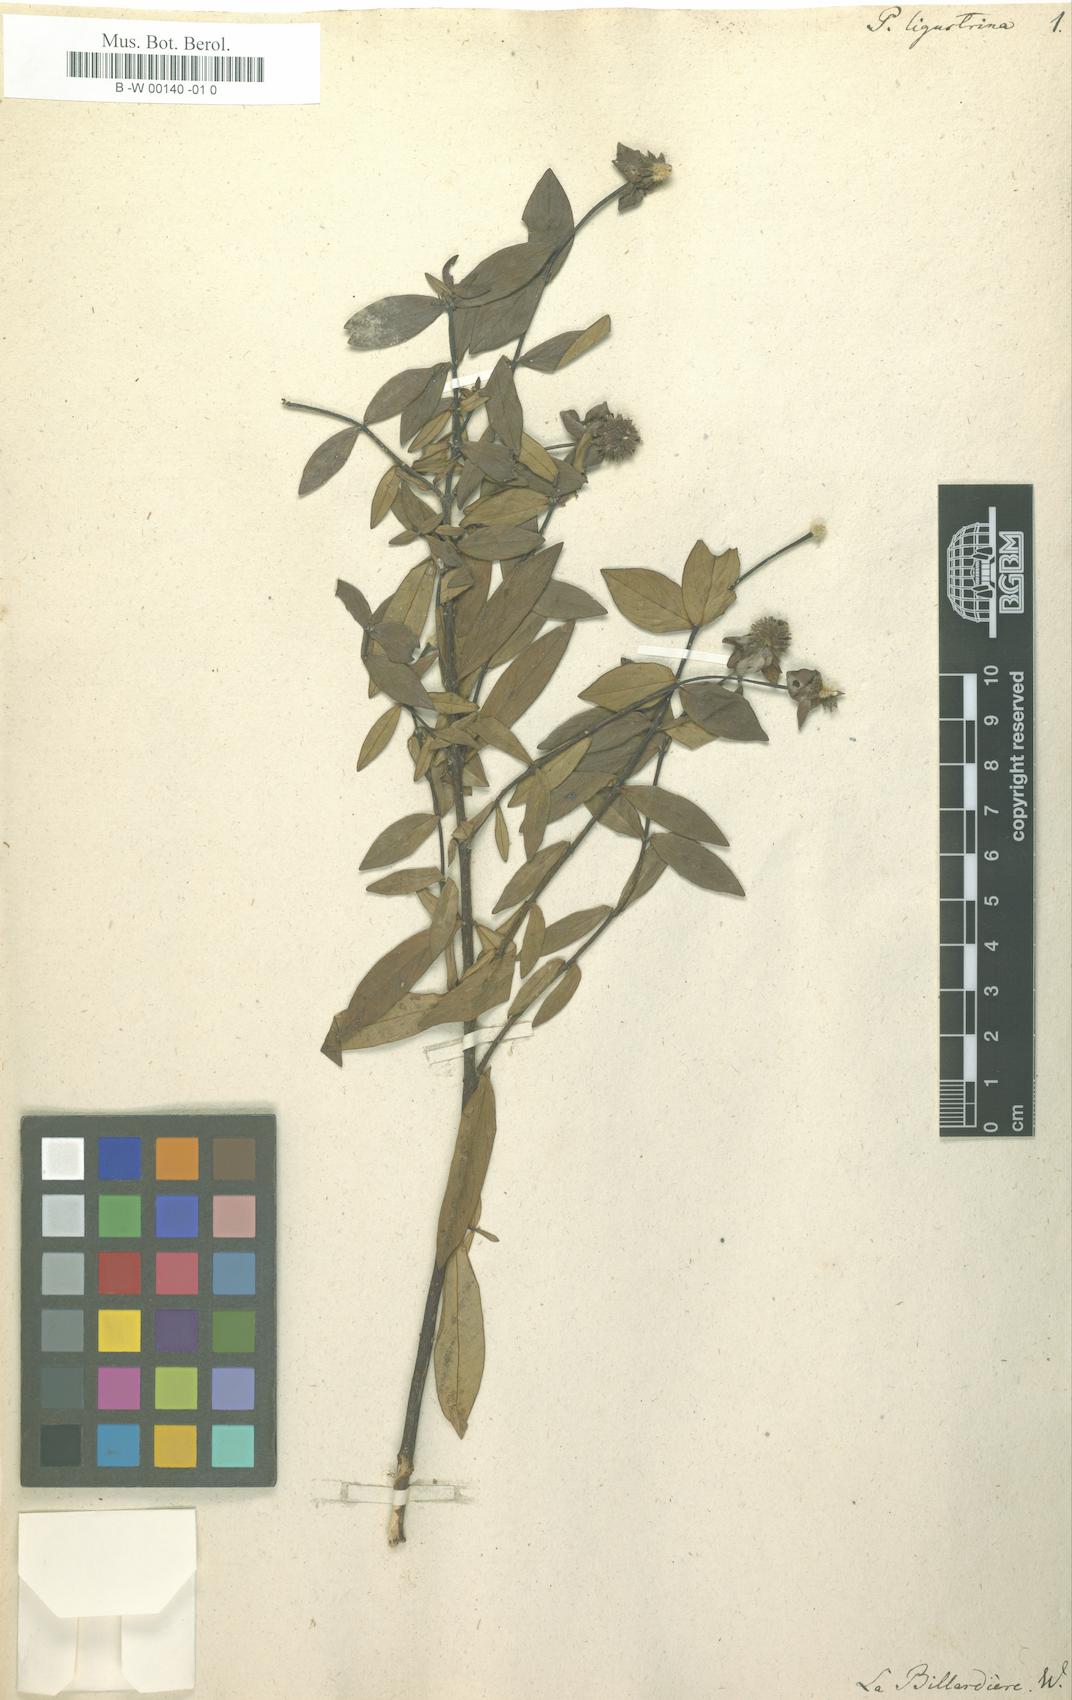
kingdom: Plantae
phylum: Tracheophyta
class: Magnoliopsida
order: Malvales
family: Thymelaeaceae
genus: Pimelea
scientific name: Pimelea ligustrina
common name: Tall riceflower
